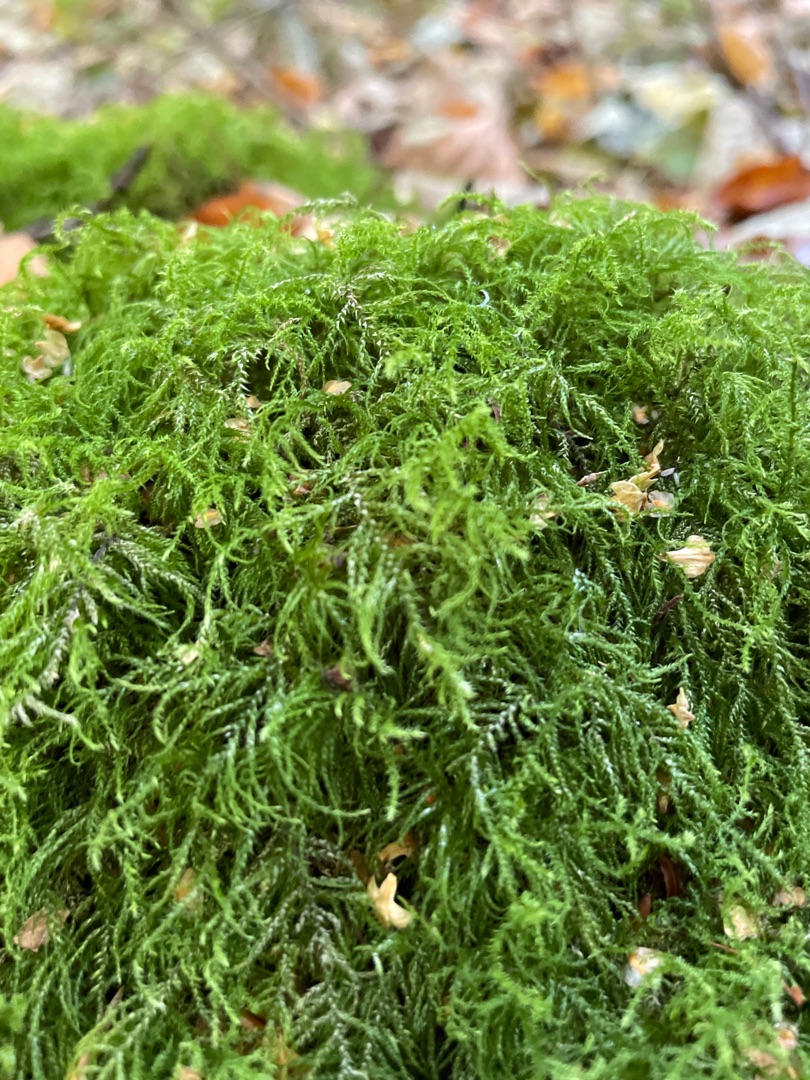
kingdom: Plantae
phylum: Bryophyta
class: Bryopsida
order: Hypnales
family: Brachytheciaceae
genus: Kindbergia
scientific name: Kindbergia praelonga
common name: Forskelligbladet vortetand
